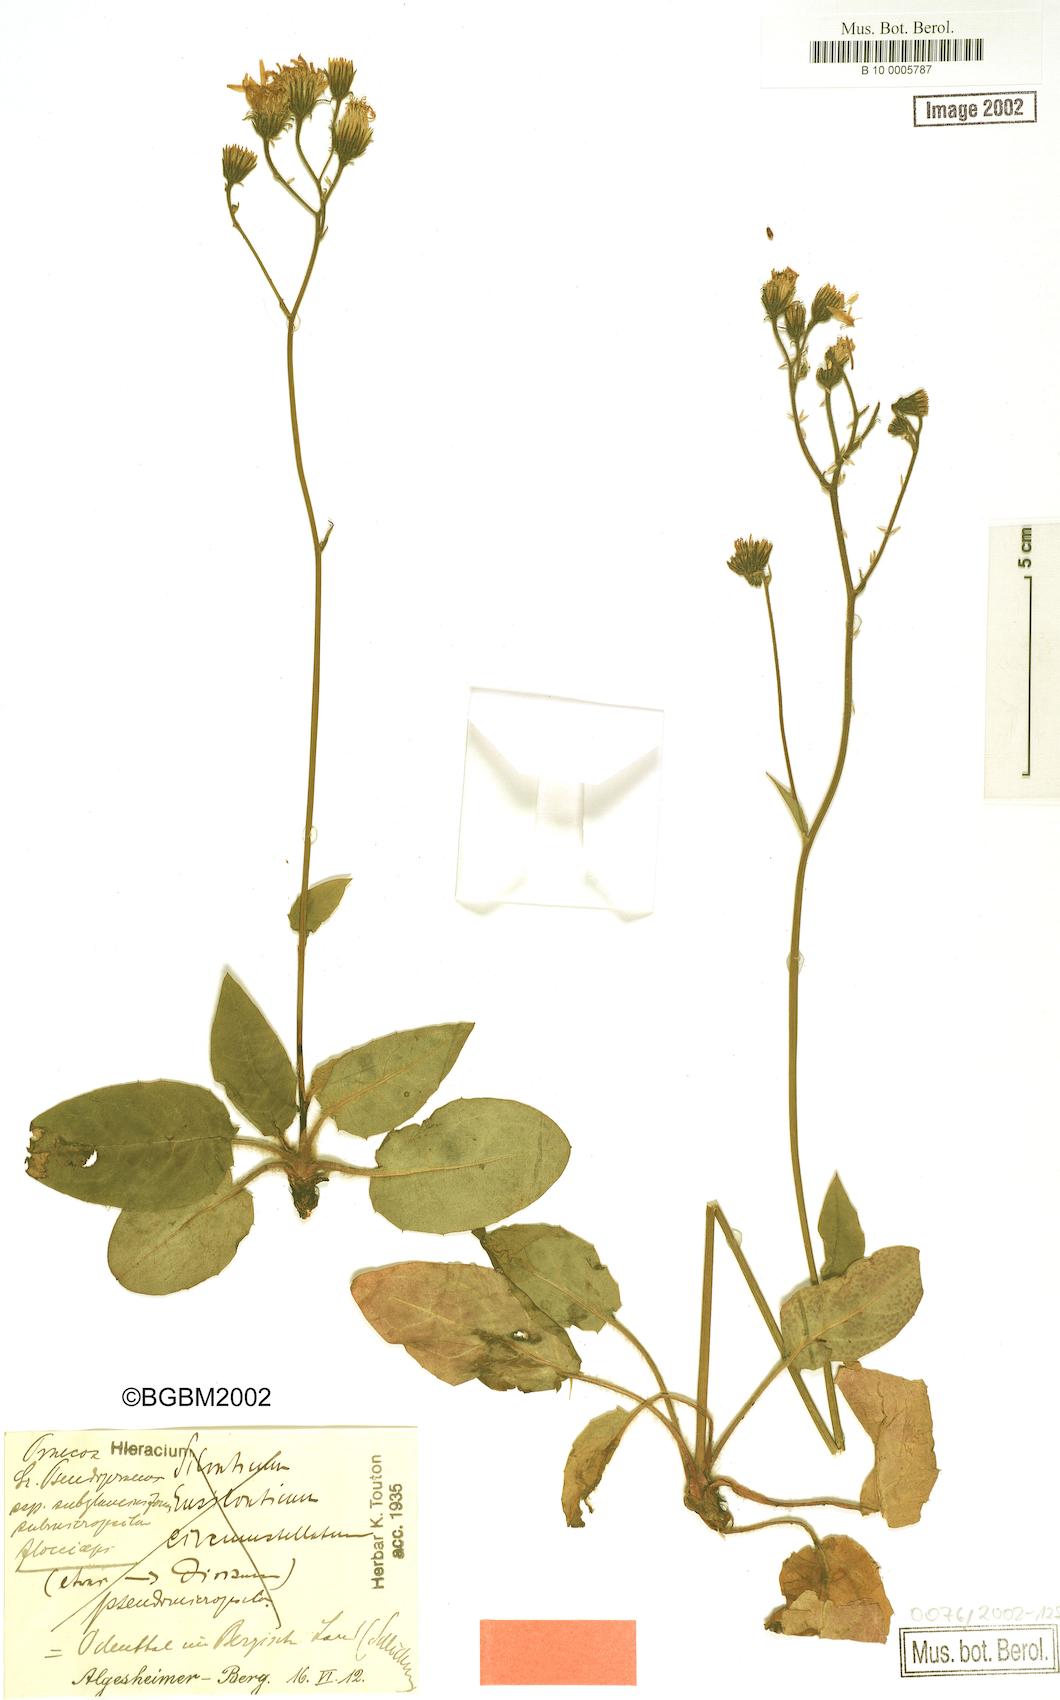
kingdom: Plantae
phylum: Tracheophyta
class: Magnoliopsida
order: Asterales
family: Asteraceae
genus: Hieracium
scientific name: Hieracium praecox
